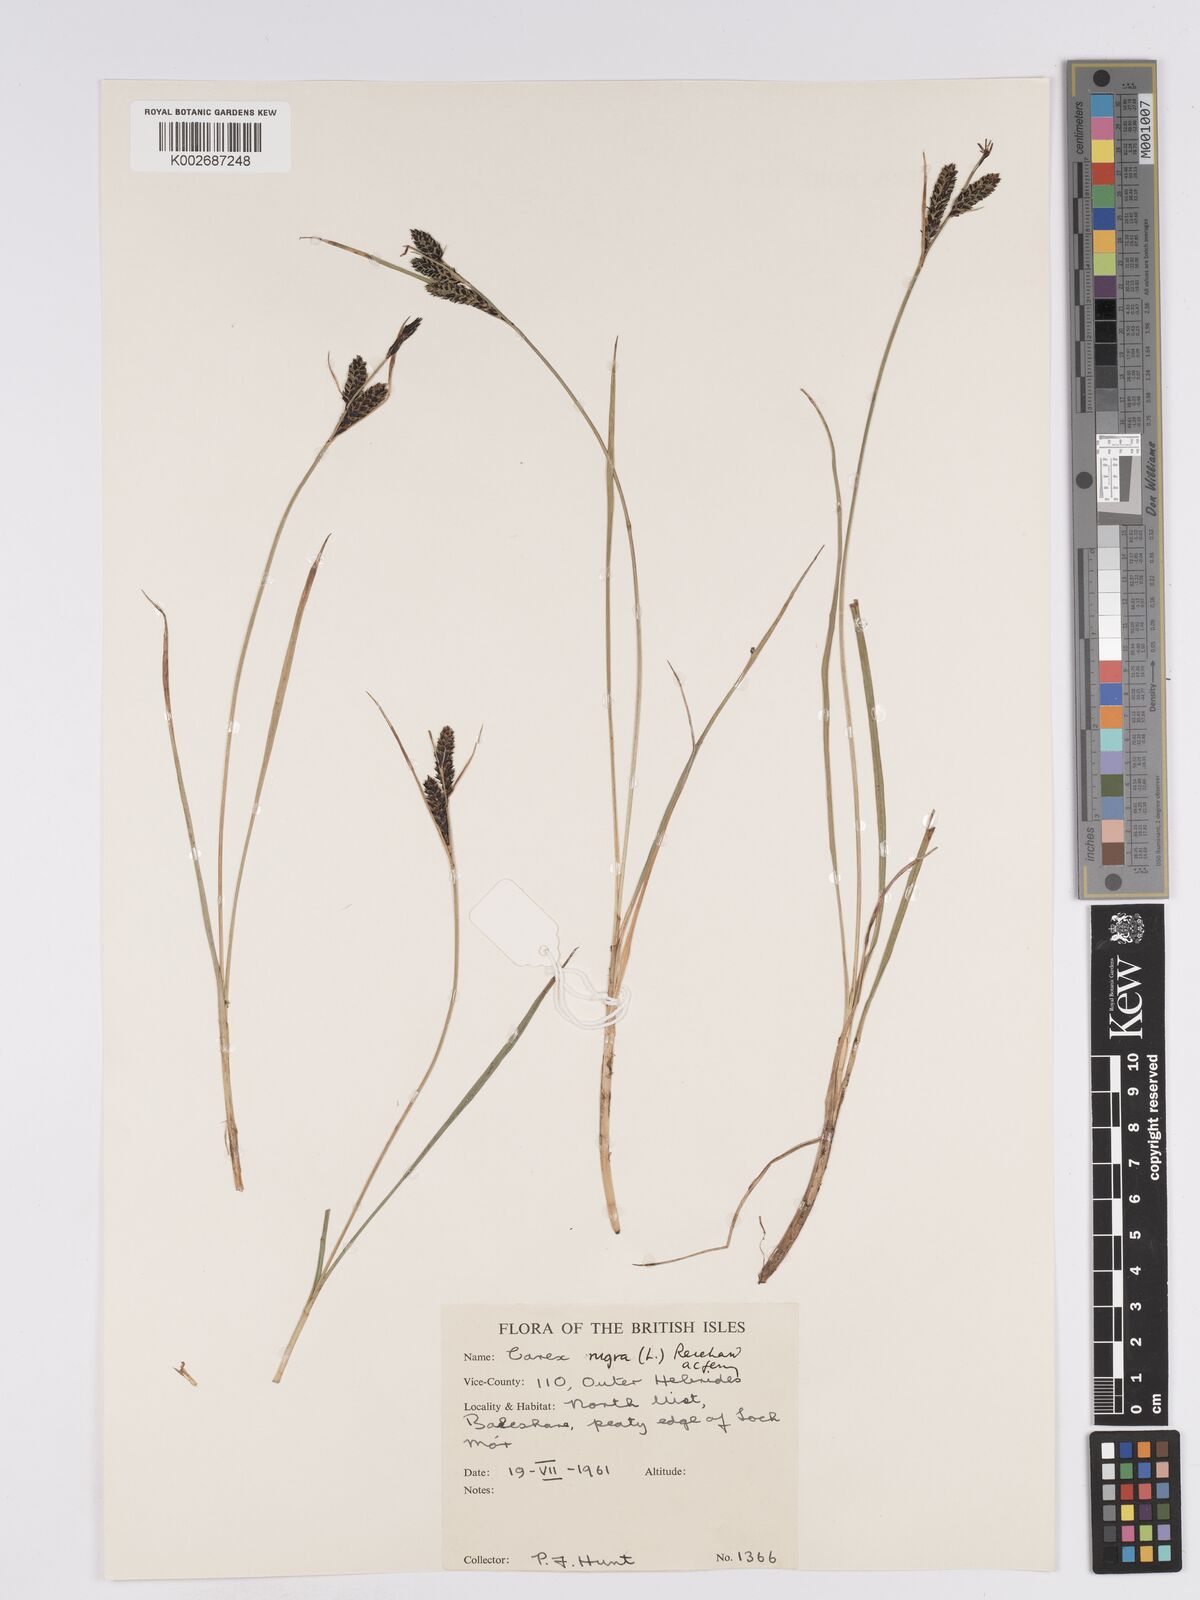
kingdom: Plantae
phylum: Tracheophyta
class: Liliopsida
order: Poales
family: Cyperaceae
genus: Carex
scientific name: Carex nigra
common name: Common sedge
